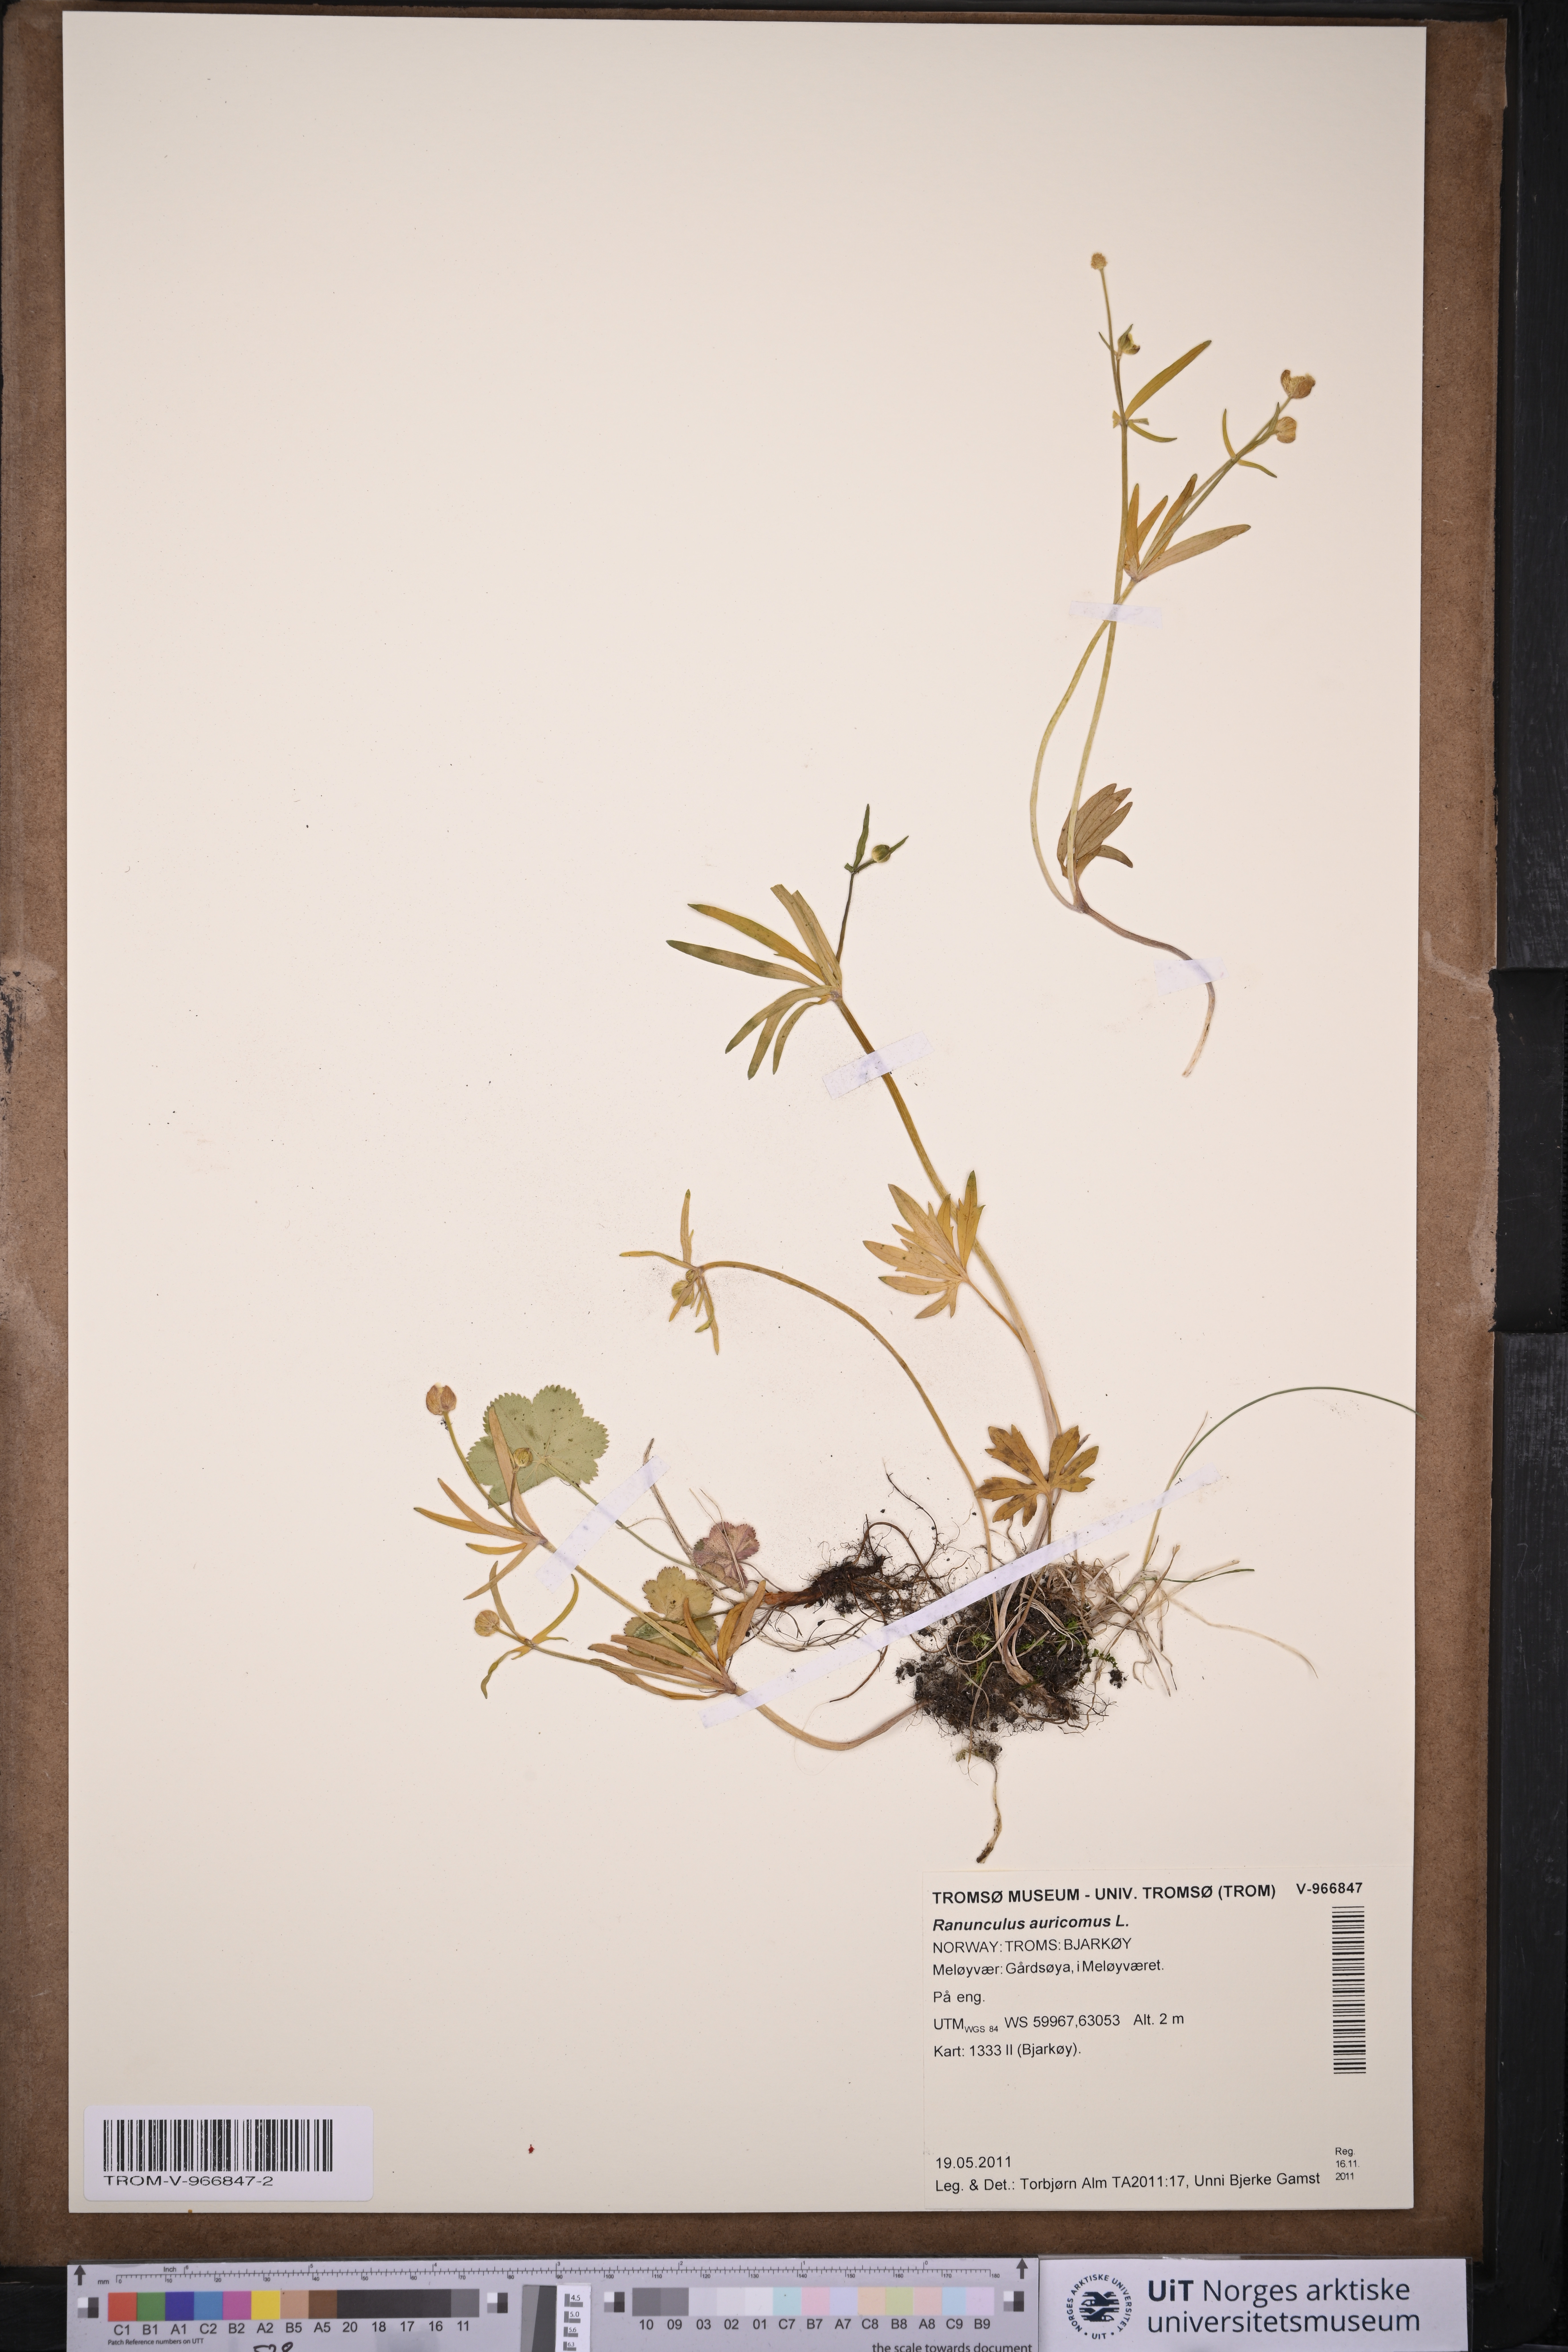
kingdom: Plantae
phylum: Tracheophyta
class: Magnoliopsida
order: Ranunculales
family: Ranunculaceae
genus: Ranunculus
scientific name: Ranunculus auricomus
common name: Goldilocks buttercup
